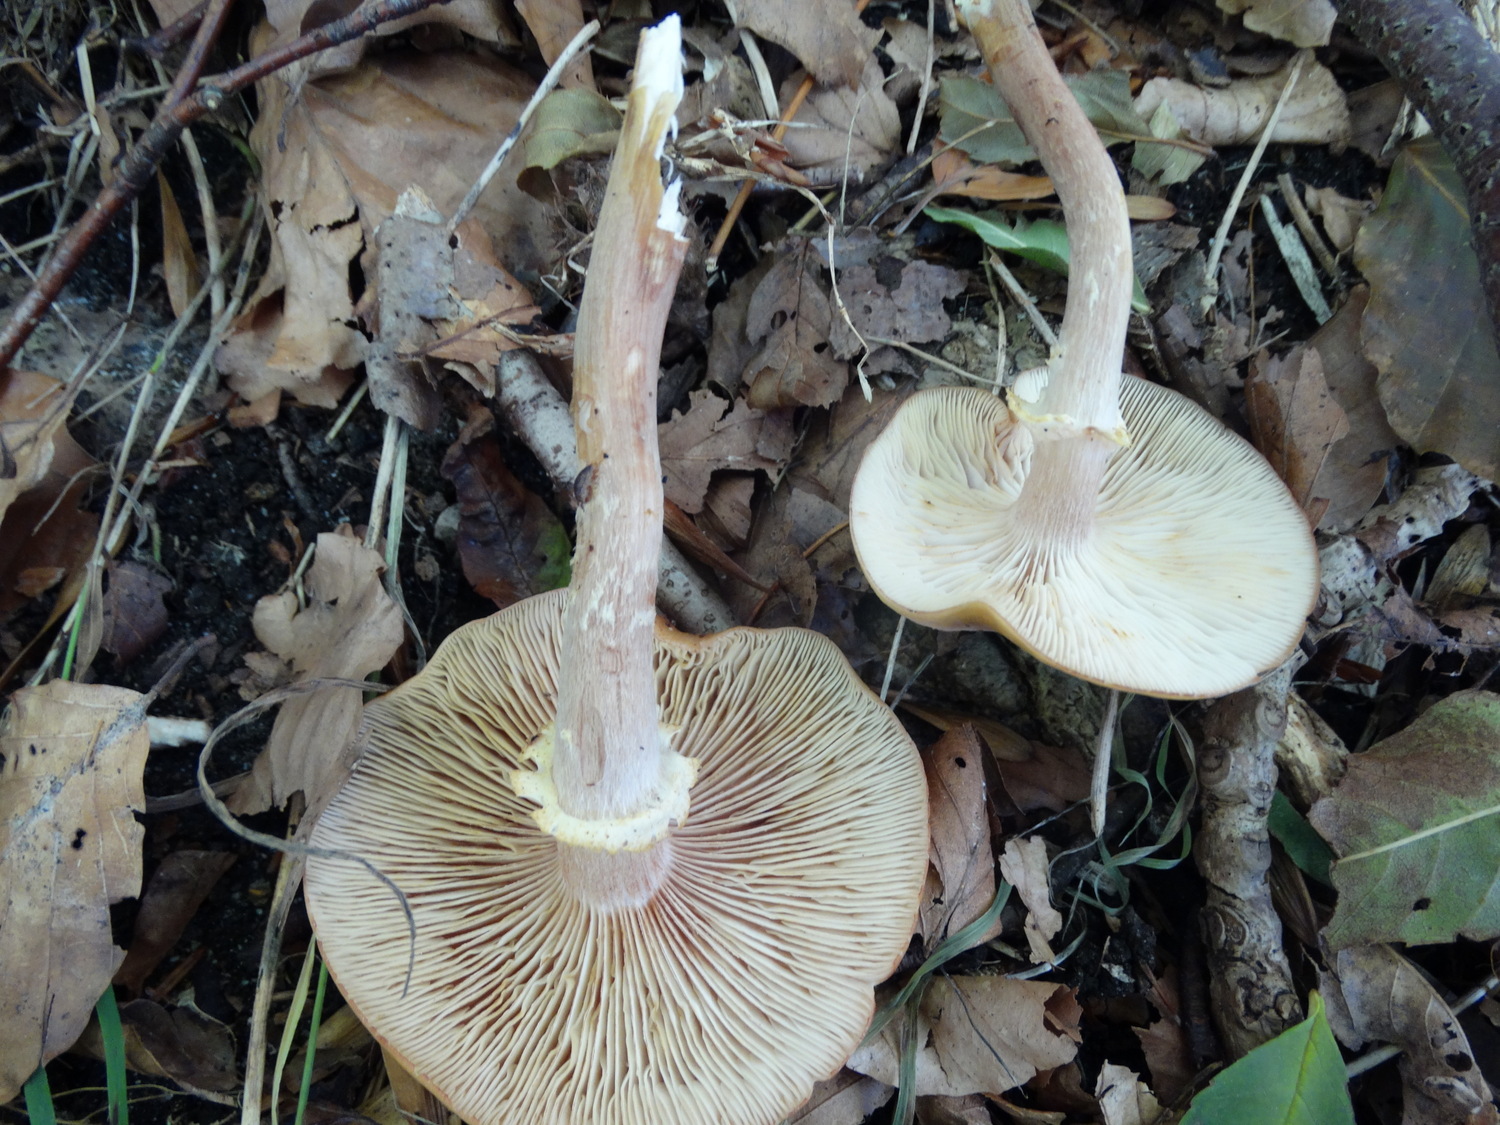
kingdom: Fungi
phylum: Basidiomycota
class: Agaricomycetes
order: Agaricales
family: Physalacriaceae
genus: Armillaria
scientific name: Armillaria mellea
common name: ægte honningsvamp
